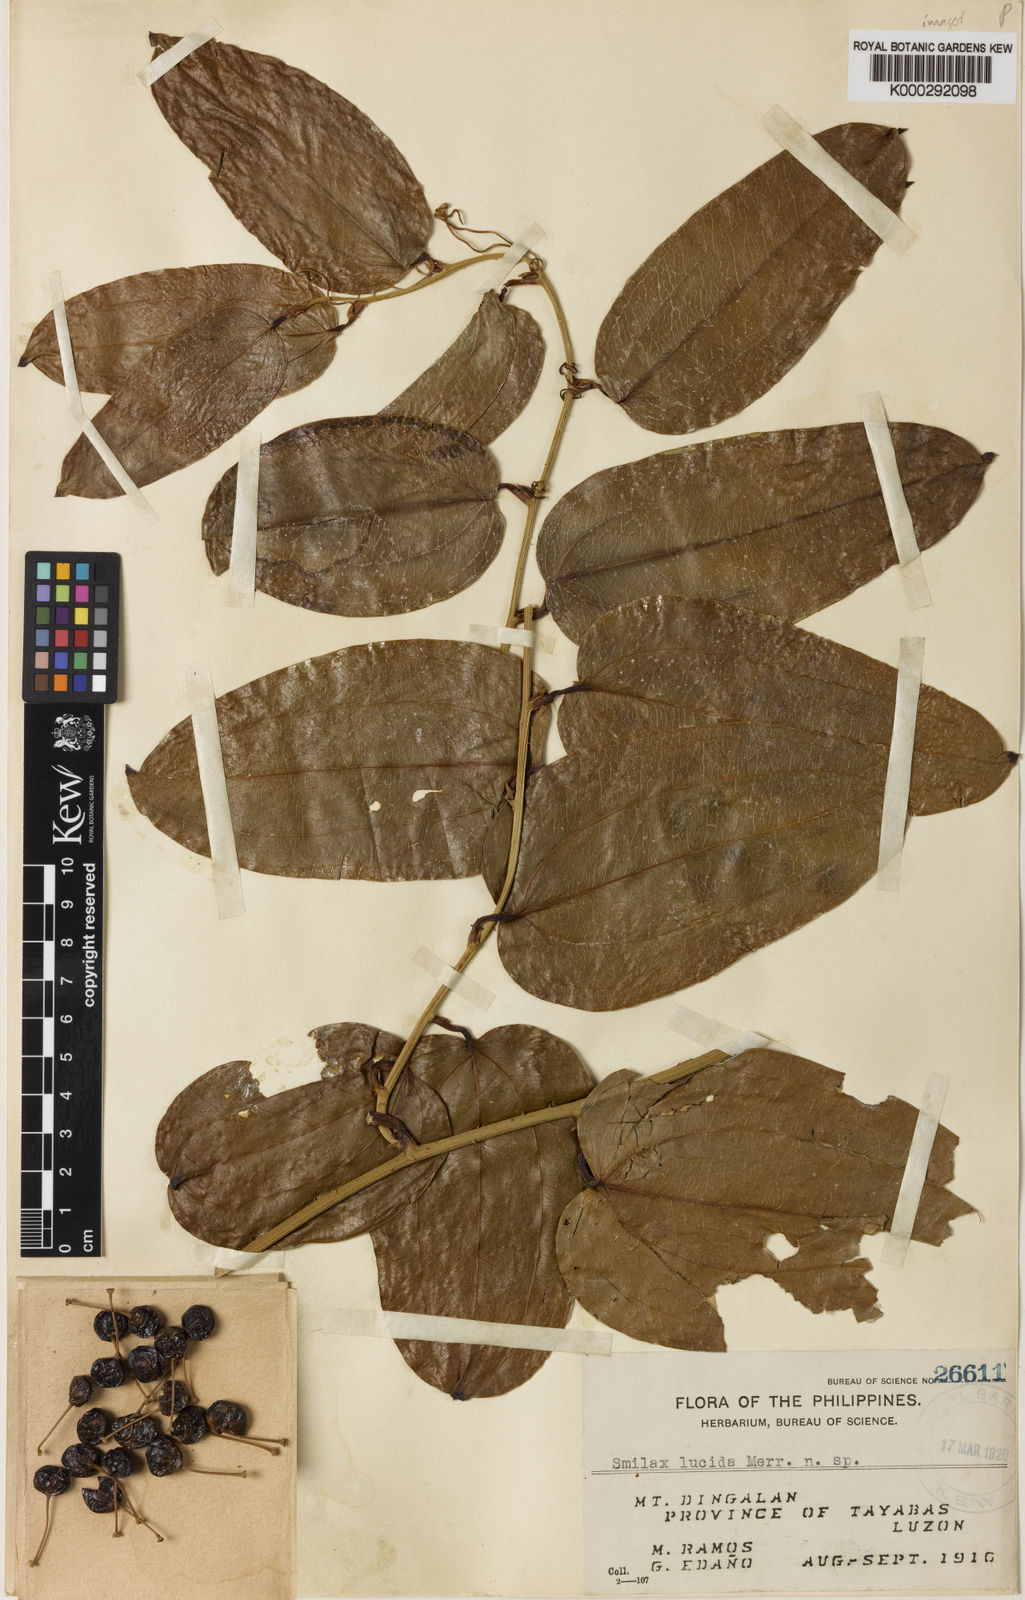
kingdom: Plantae
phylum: Tracheophyta
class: Liliopsida
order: Liliales
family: Smilacaceae
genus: Smilax
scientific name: Smilax lucida
